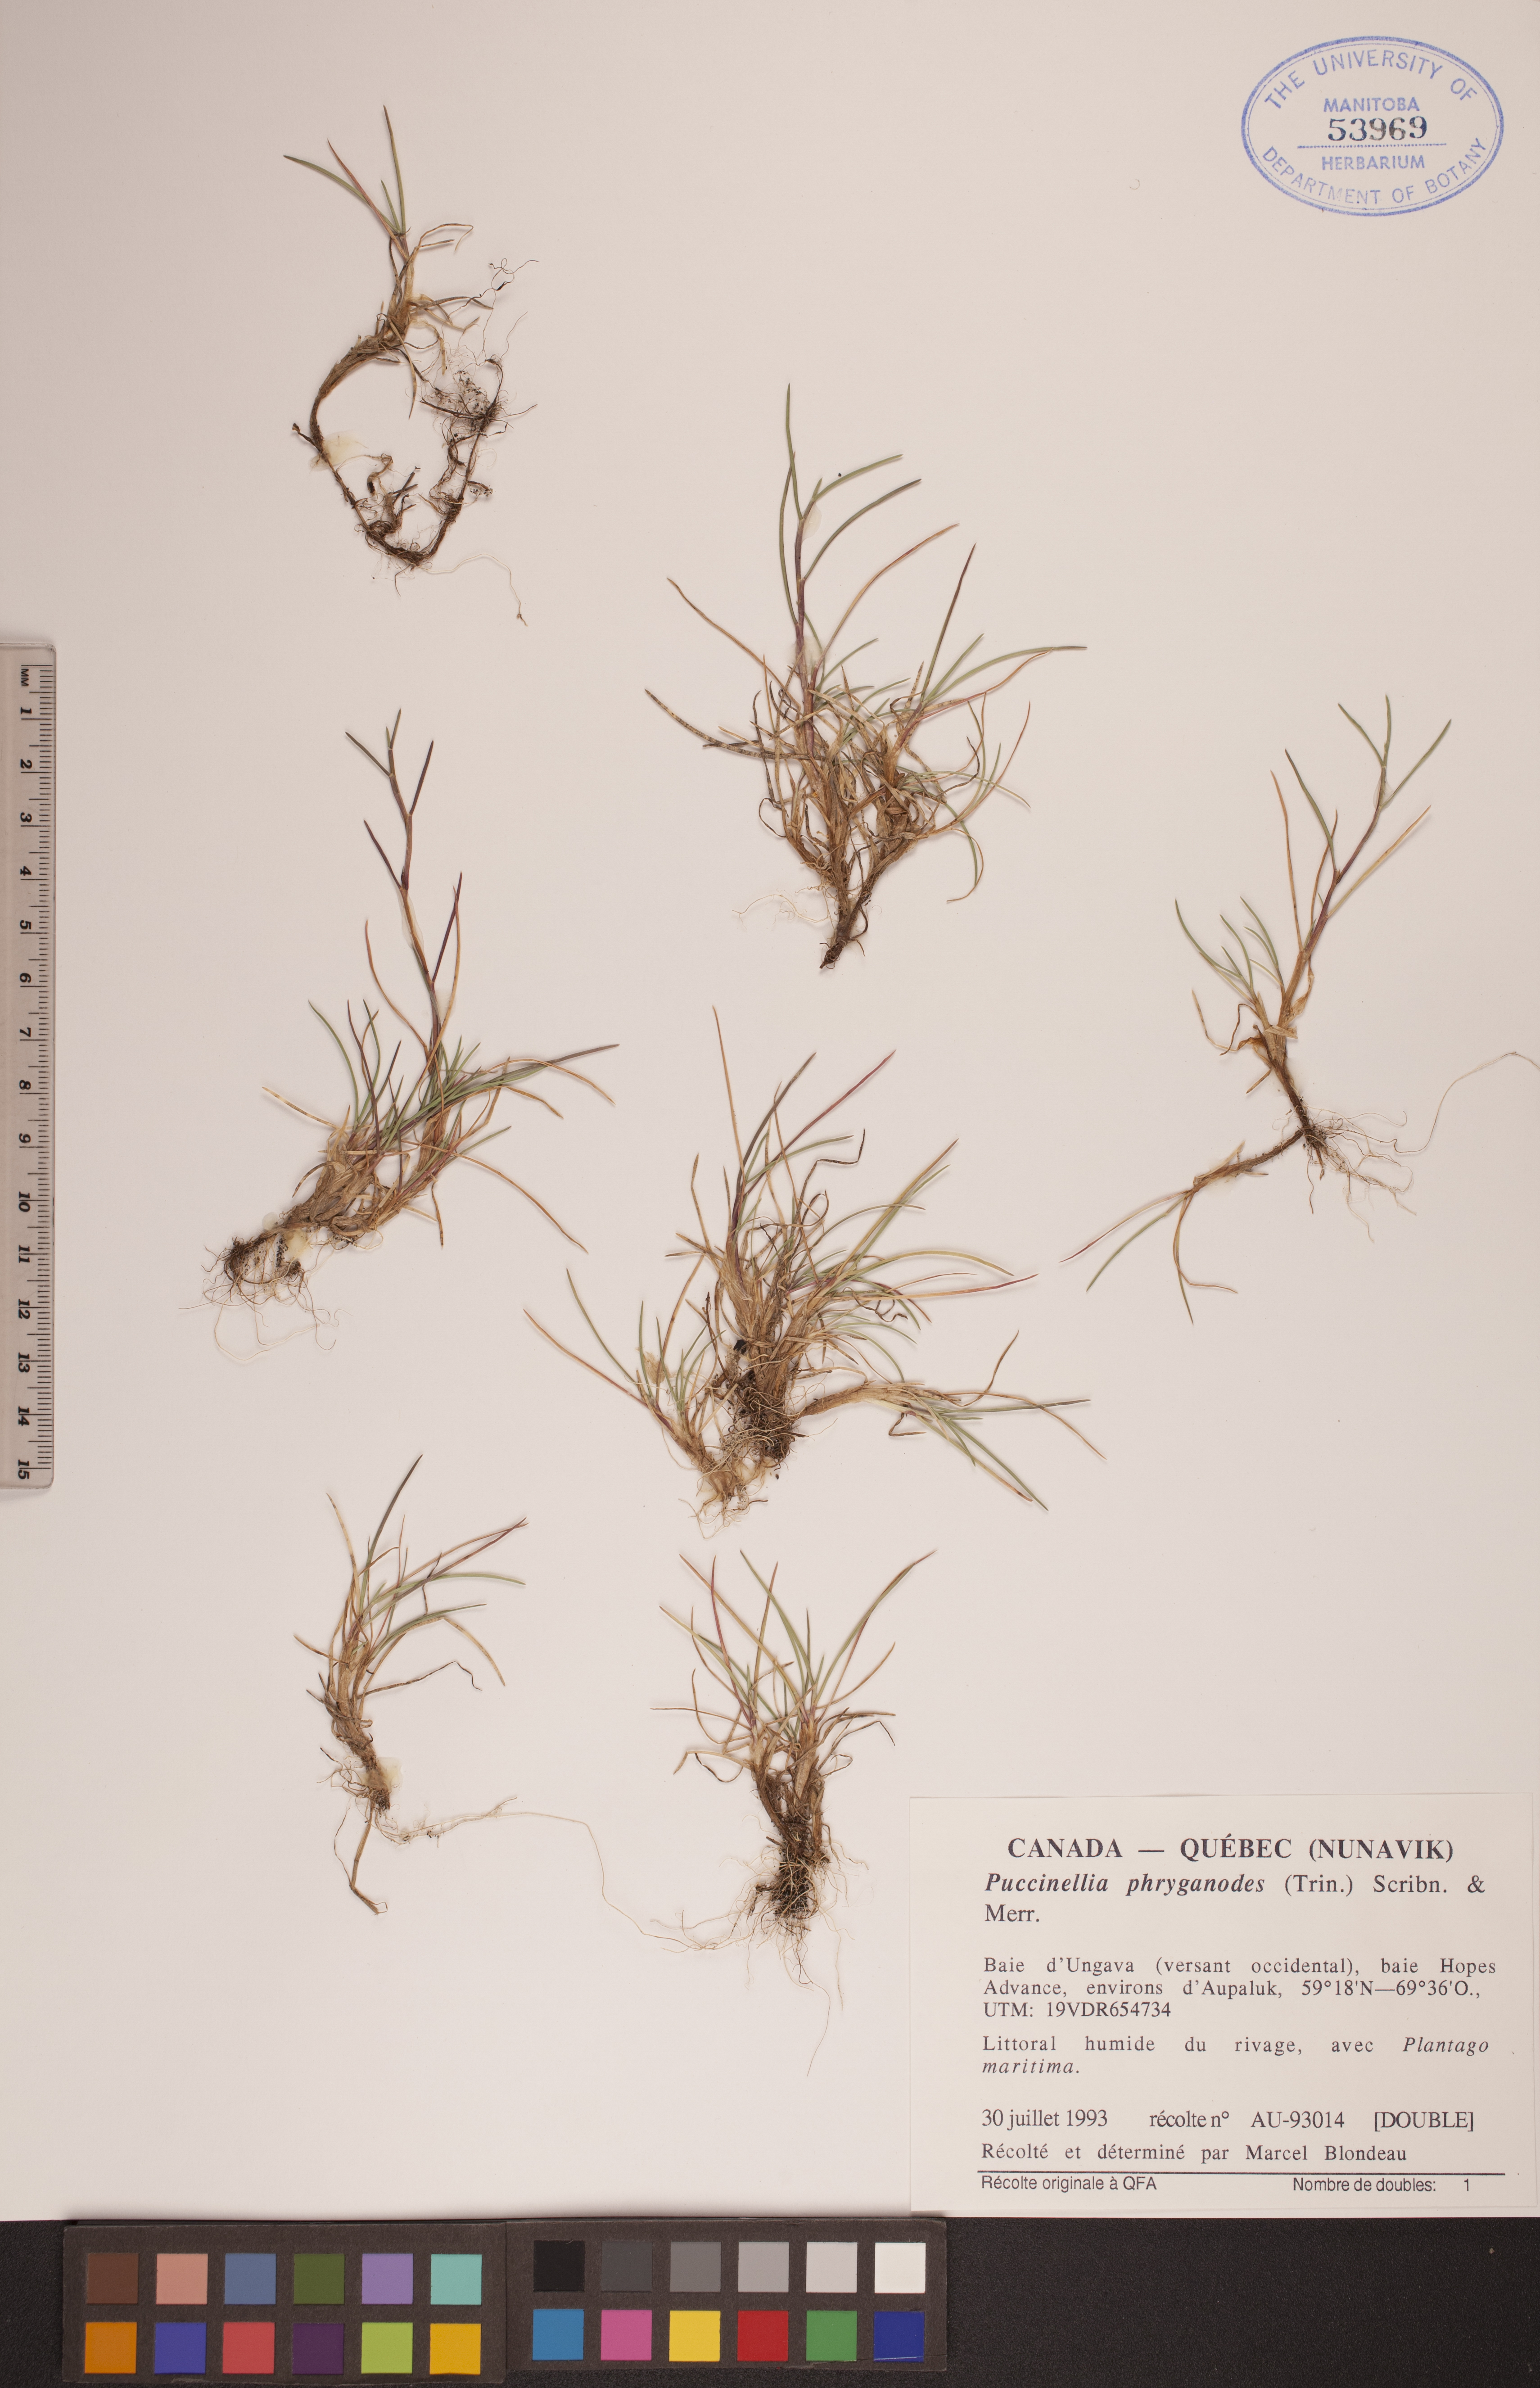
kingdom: Plantae
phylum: Tracheophyta
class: Liliopsida
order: Poales
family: Poaceae
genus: Puccinellia
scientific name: Puccinellia phryganodes
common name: Creeping alkaligrass
